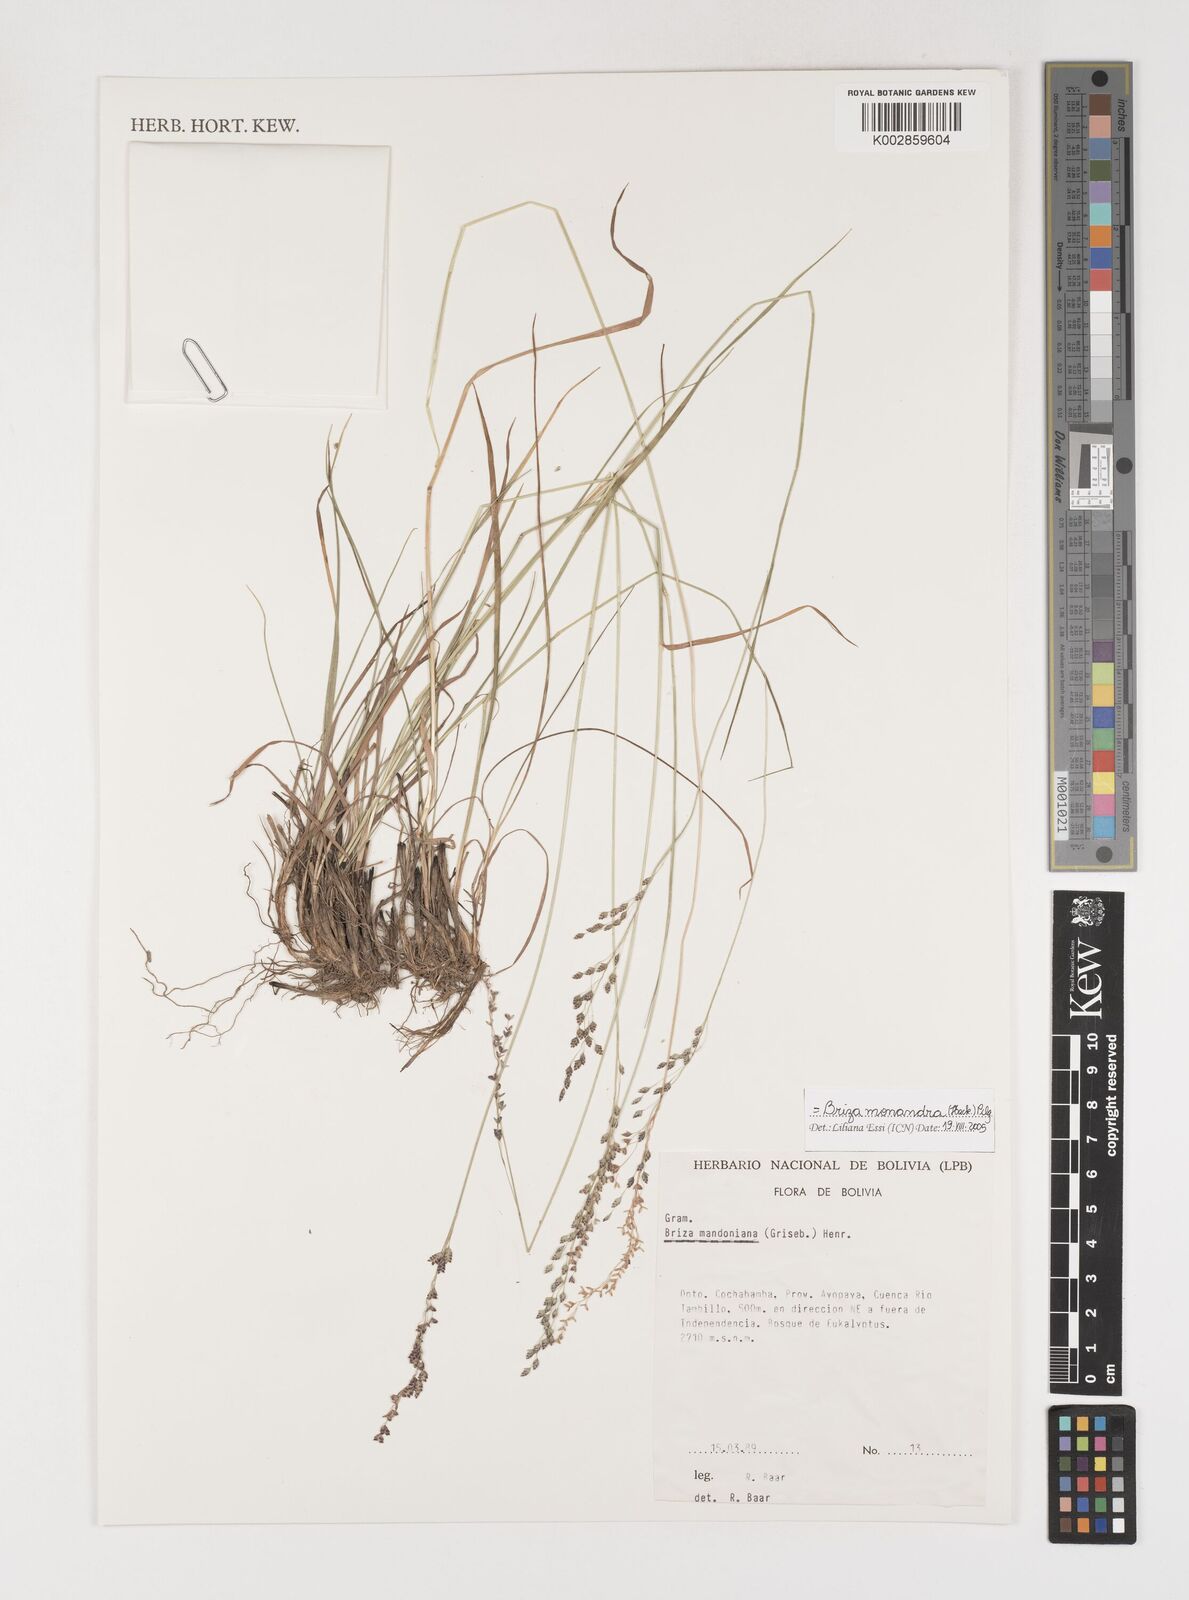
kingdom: Plantae
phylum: Tracheophyta
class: Liliopsida
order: Poales
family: Poaceae
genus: Poidium
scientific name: Poidium monandrum
